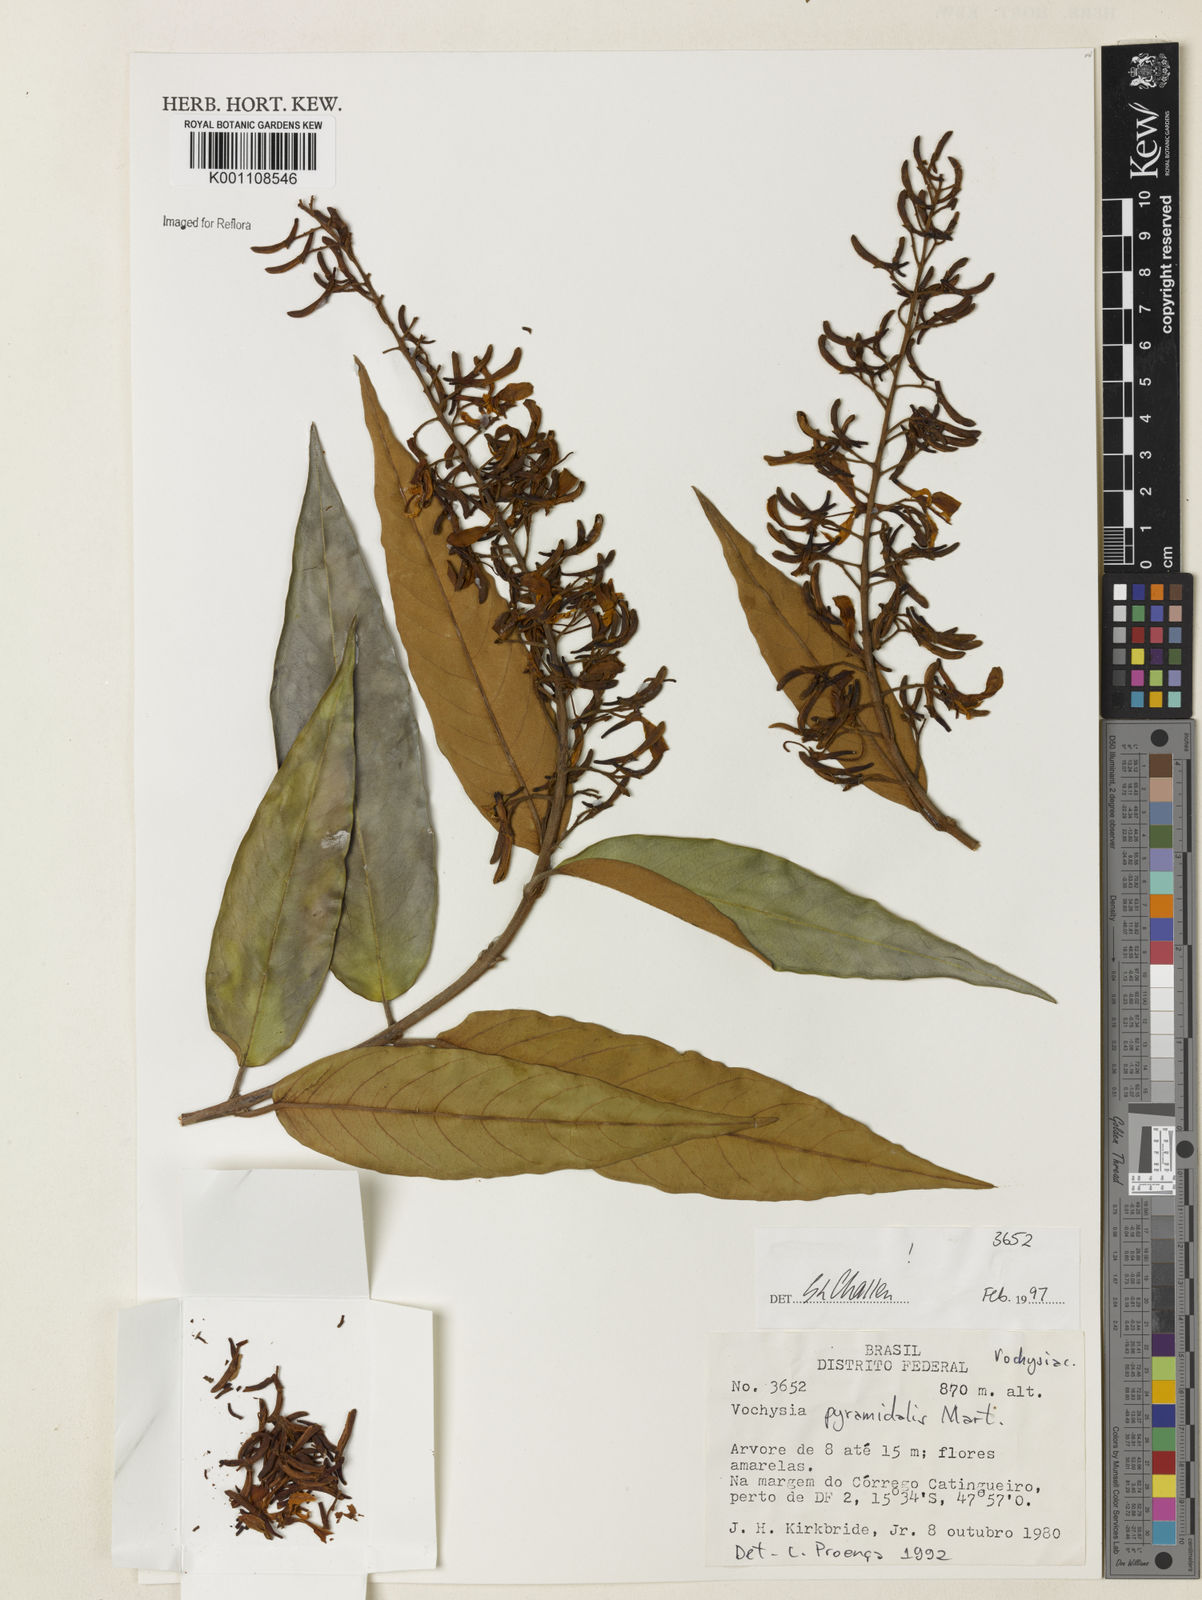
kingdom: Plantae
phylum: Tracheophyta
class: Magnoliopsida
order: Myrtales
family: Vochysiaceae
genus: Vochysia
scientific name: Vochysia pyramidalis
